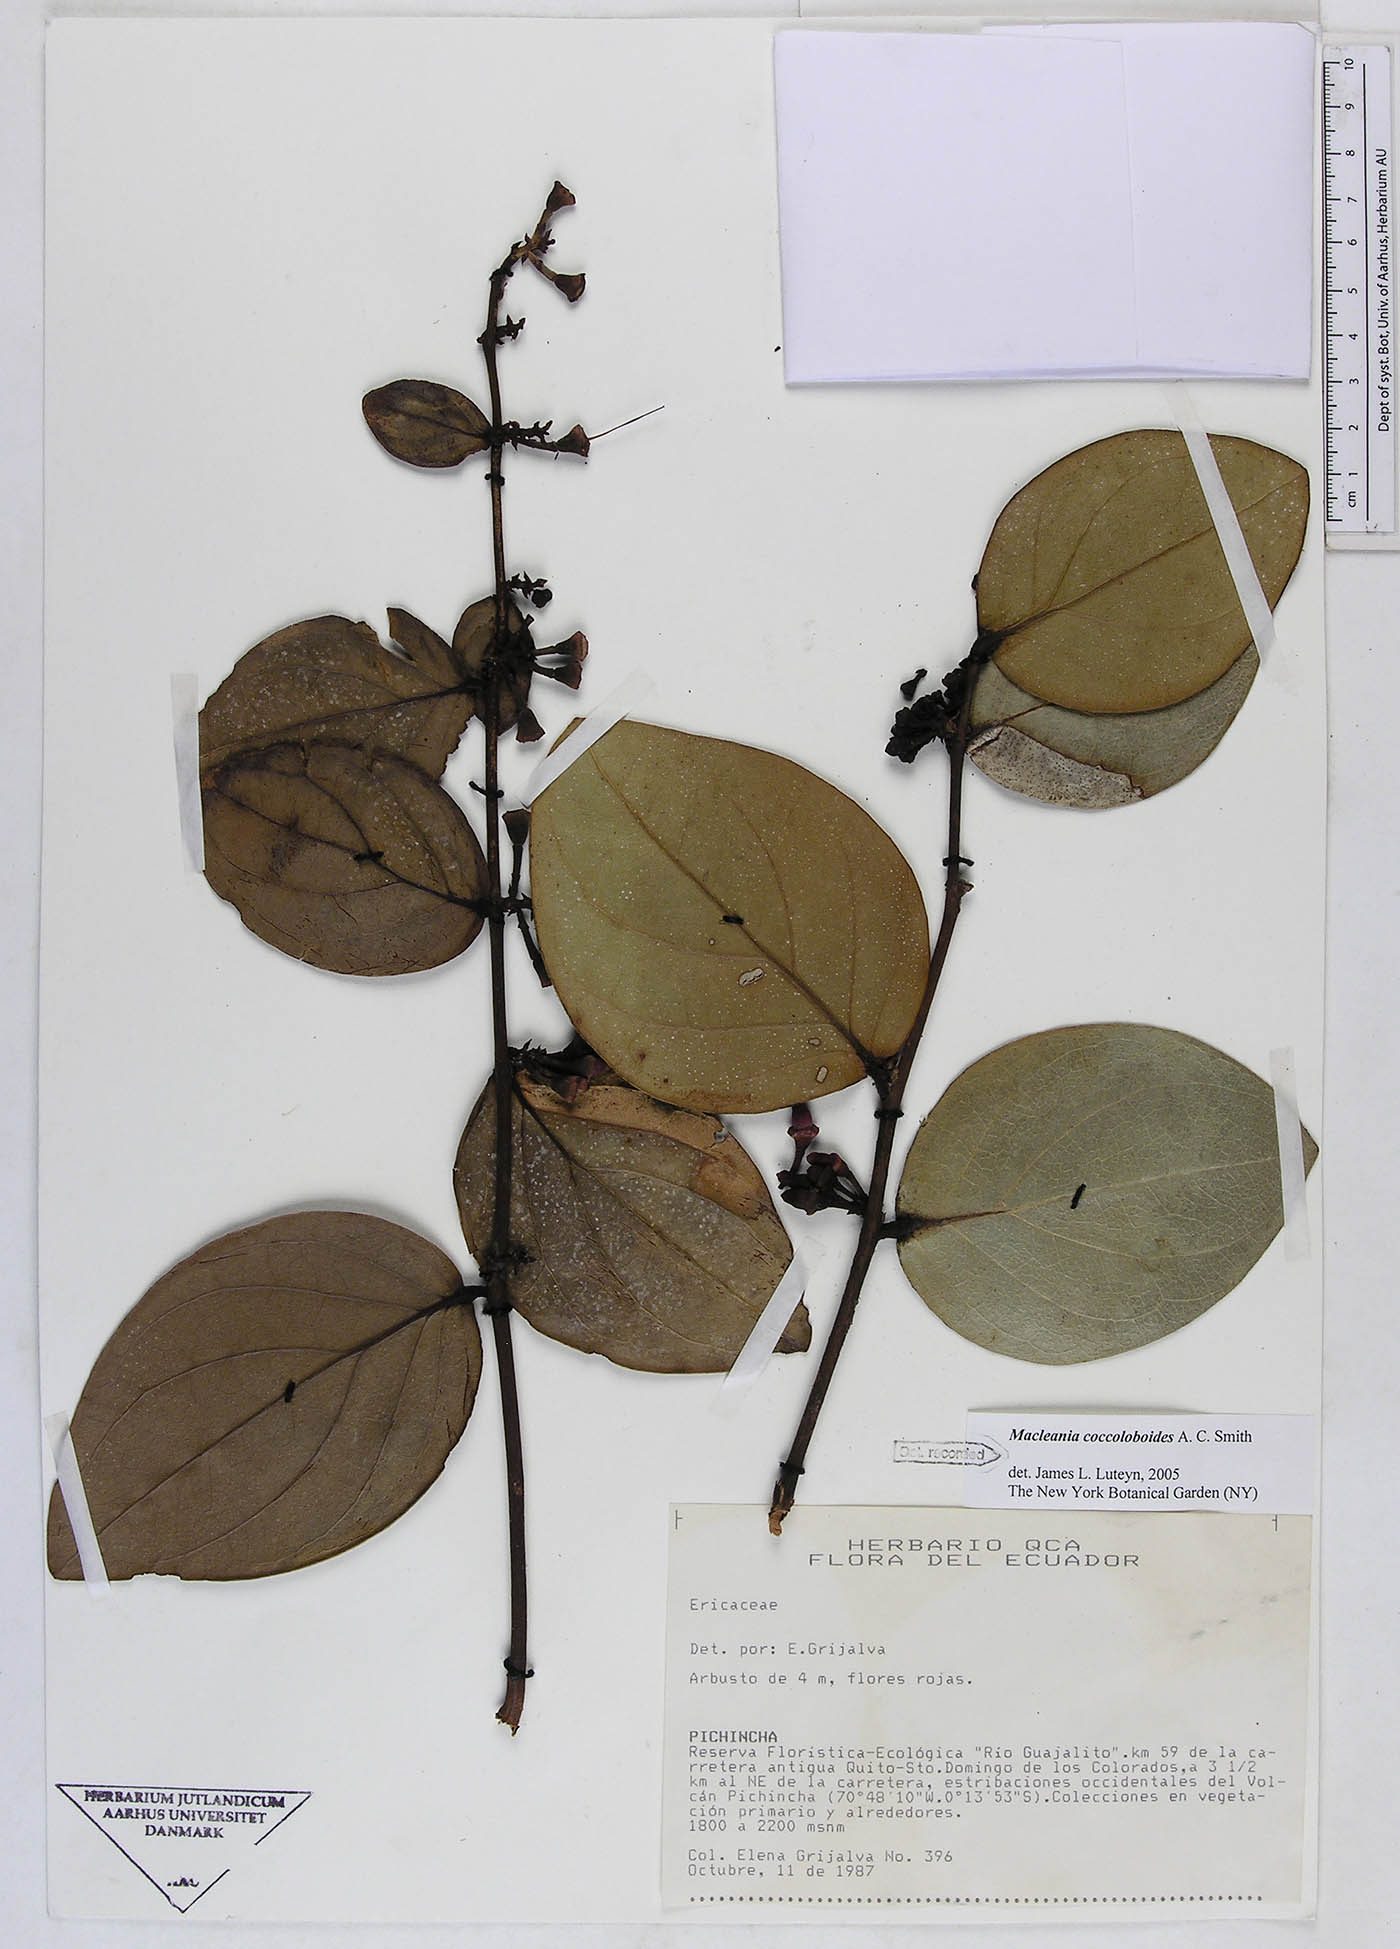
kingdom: Plantae
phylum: Tracheophyta
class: Magnoliopsida
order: Ericales
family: Ericaceae
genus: Macleania
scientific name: Macleania coccoloboides
